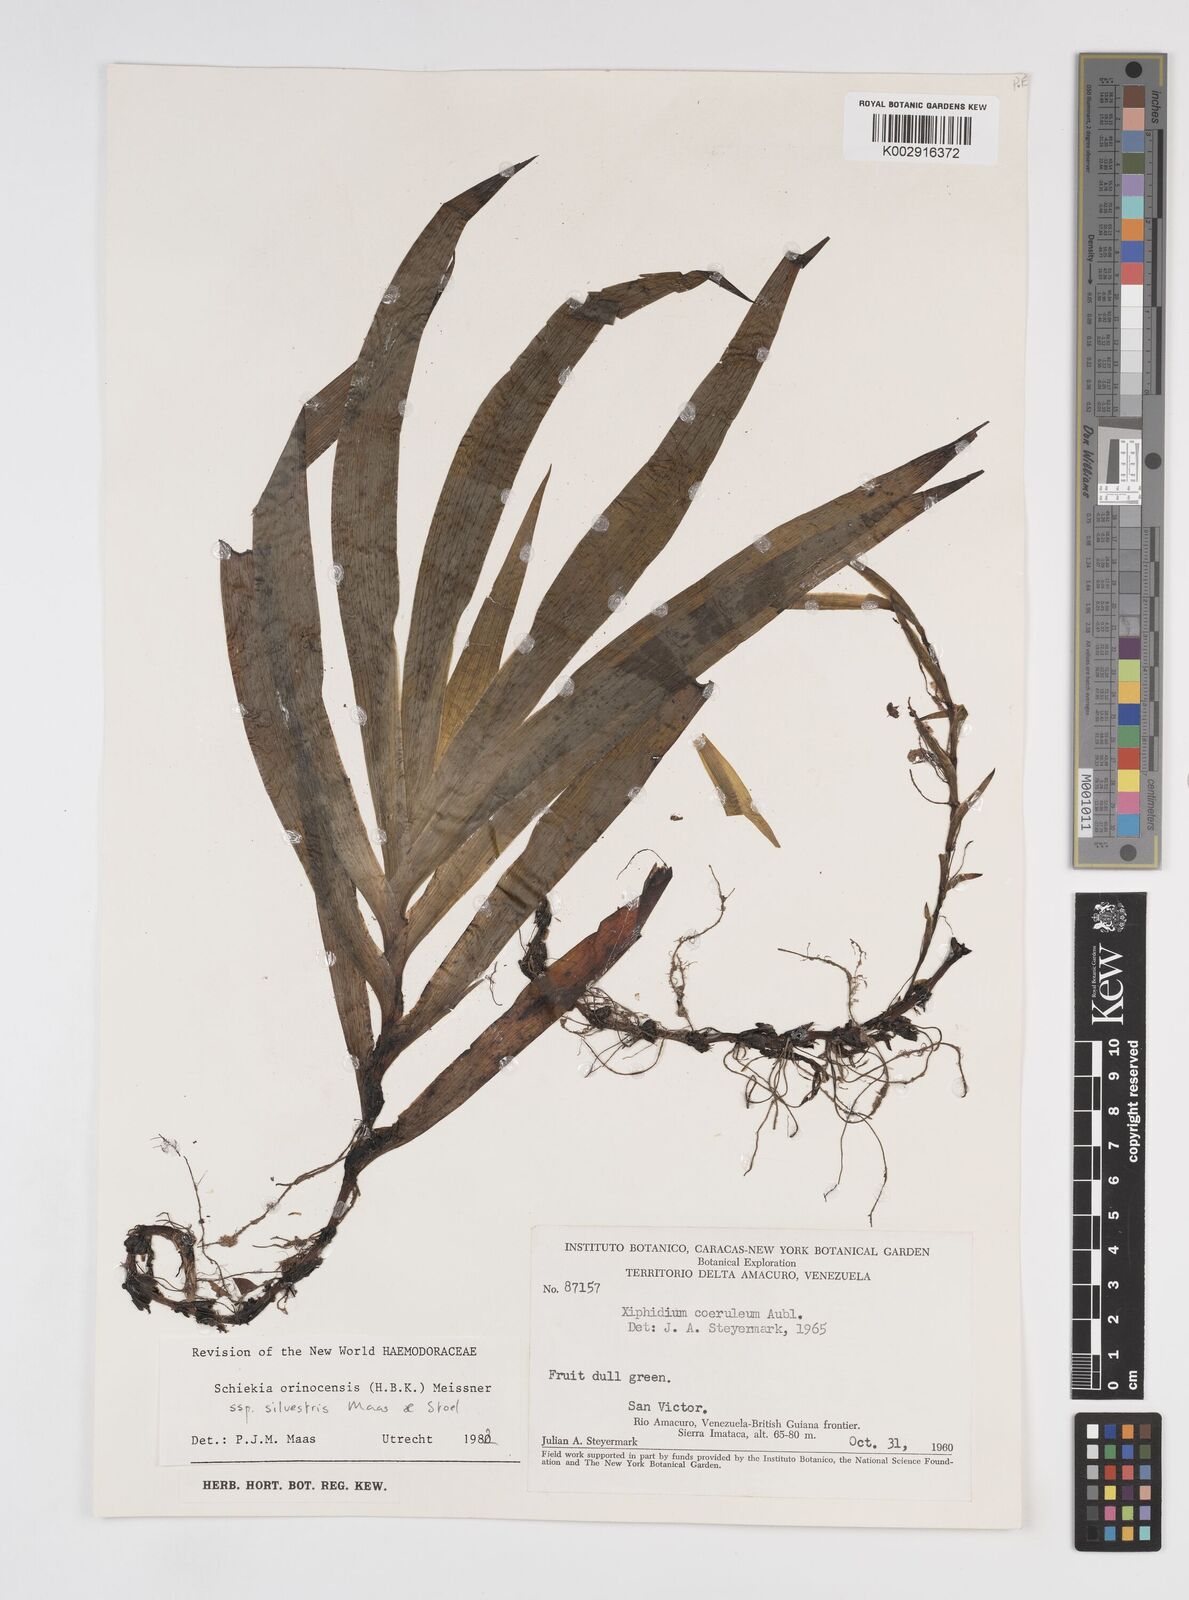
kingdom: Plantae
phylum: Tracheophyta
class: Liliopsida
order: Commelinales
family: Haemodoraceae
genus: Schiekia
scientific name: Schiekia silvestris
